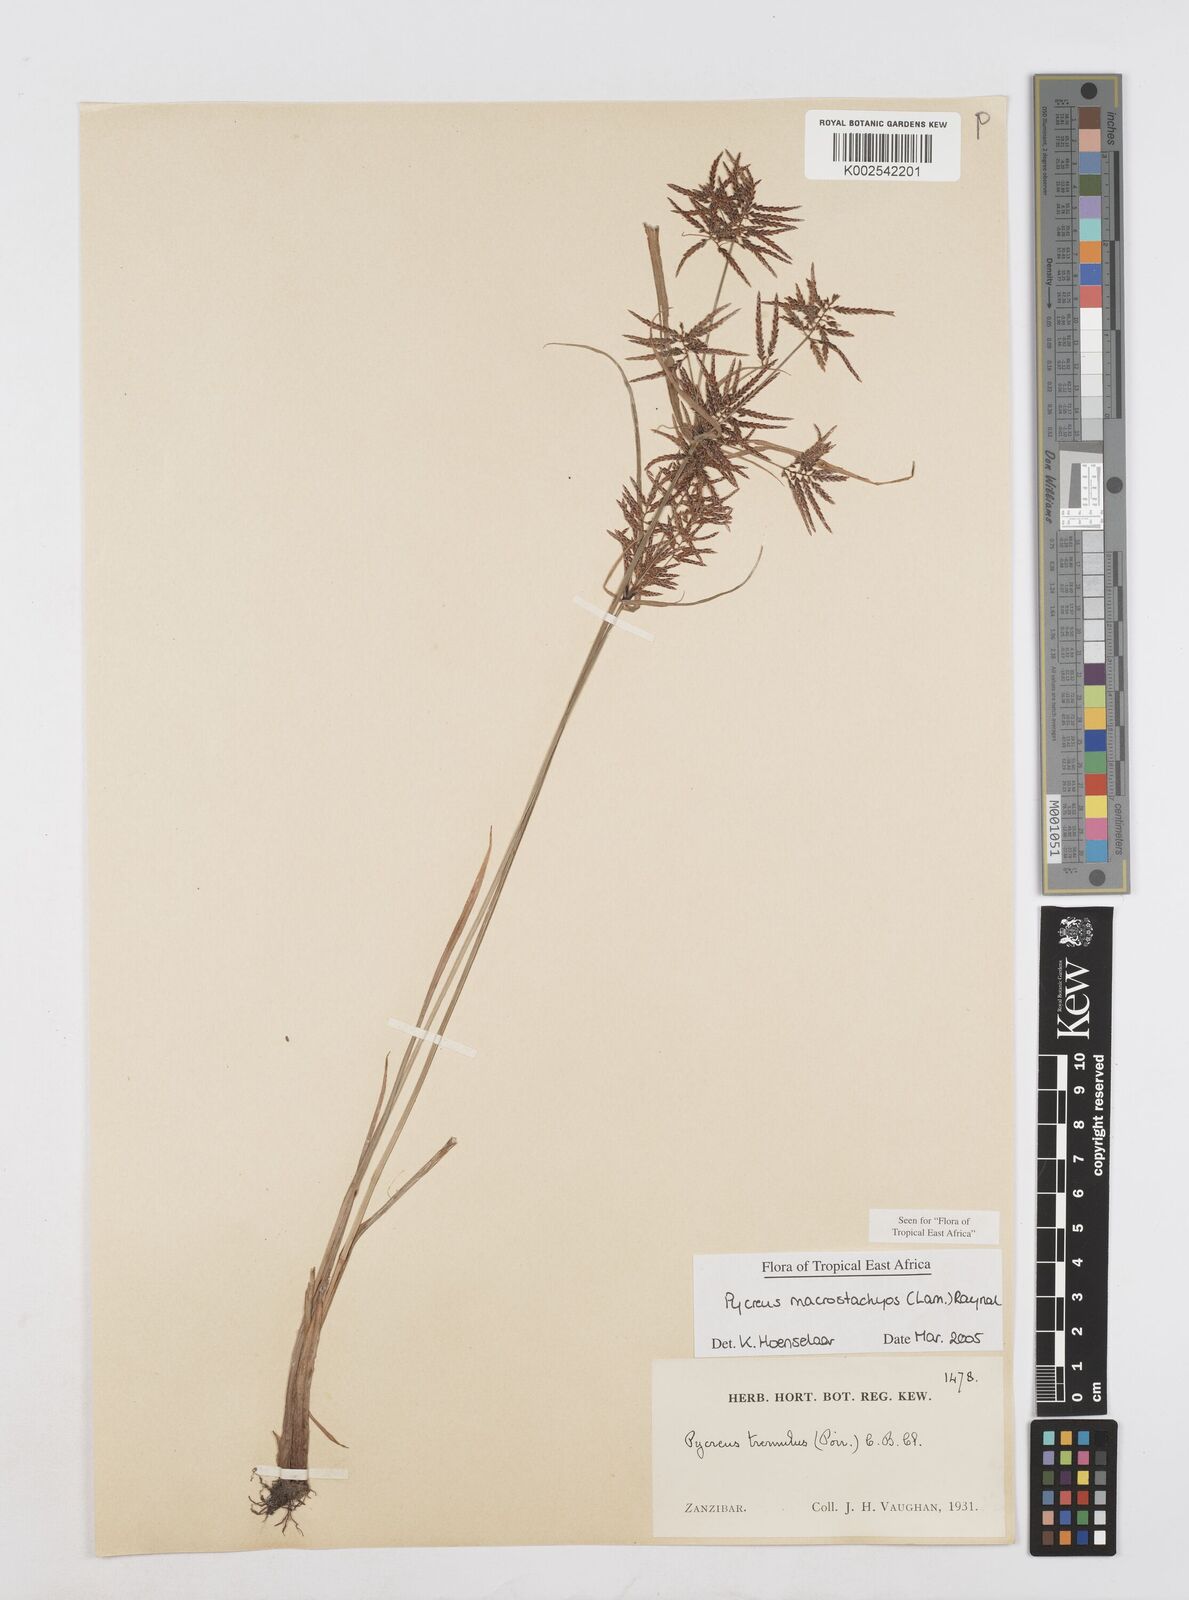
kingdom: Plantae
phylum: Tracheophyta
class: Liliopsida
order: Poales
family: Cyperaceae
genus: Cyperus
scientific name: Cyperus macrostachyos
